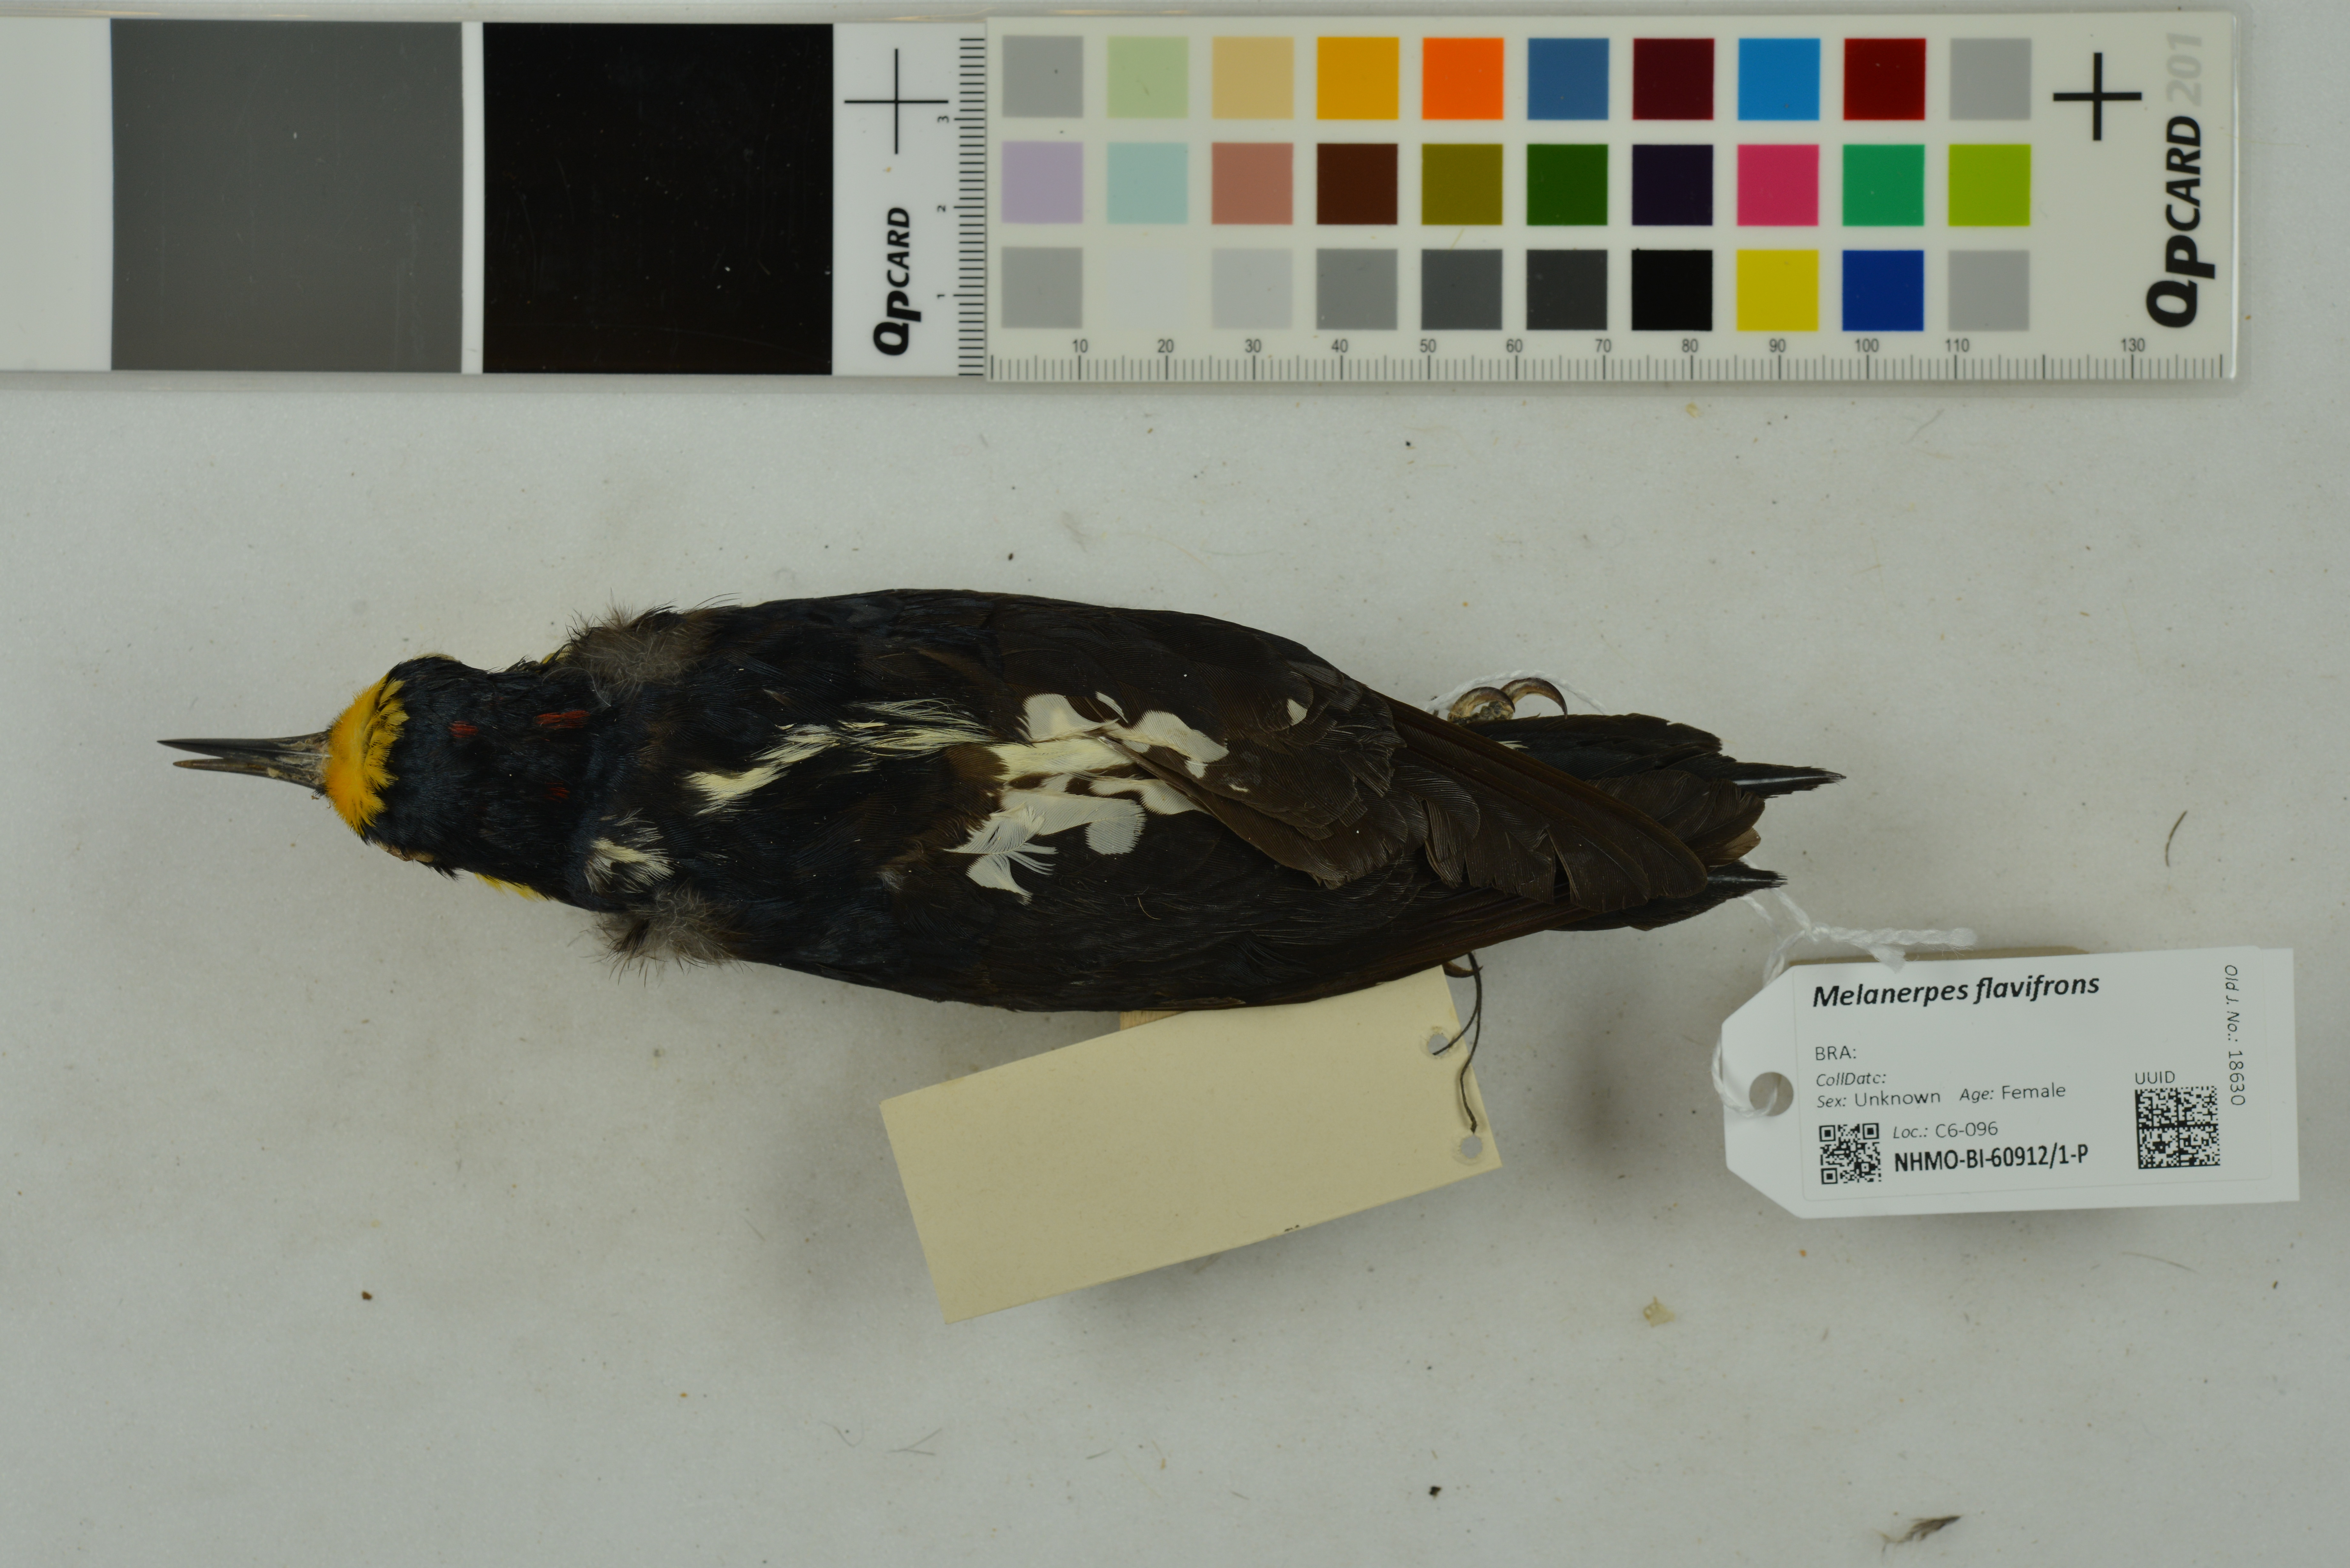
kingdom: Animalia
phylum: Chordata
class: Aves
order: Piciformes
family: Picidae
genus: Melanerpes
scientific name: Melanerpes flavifrons
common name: Yellow-fronted woodpecker
